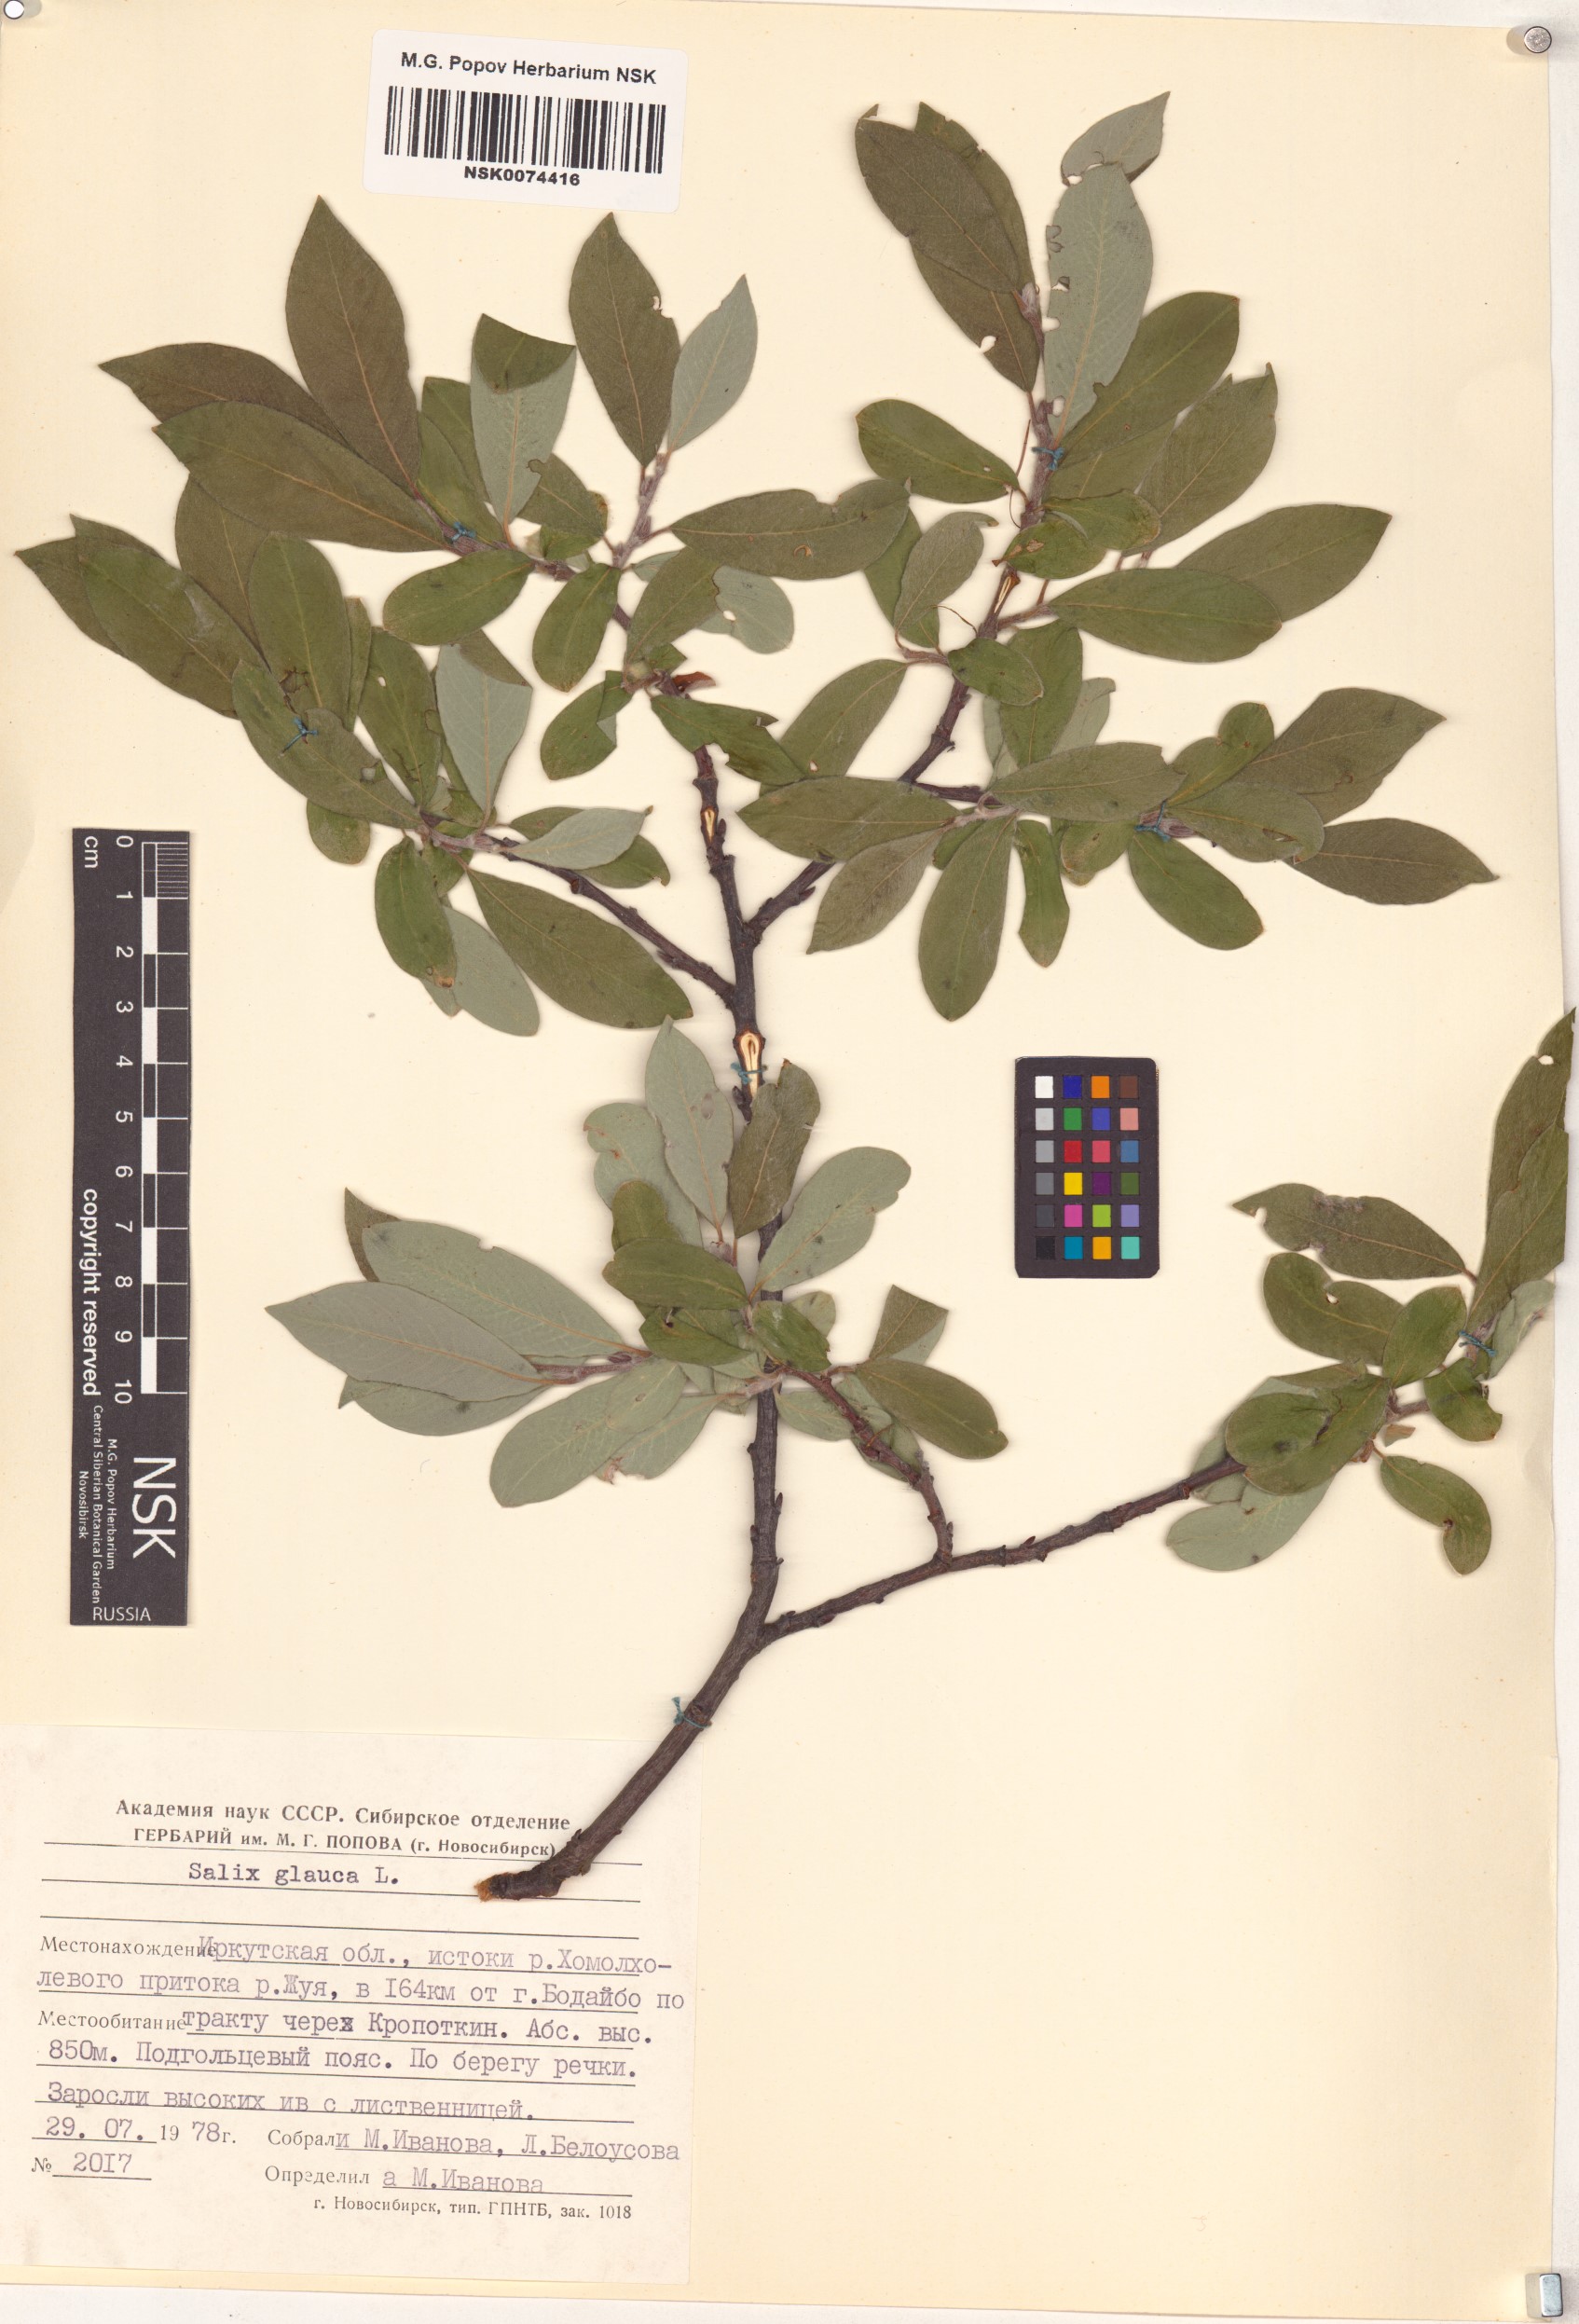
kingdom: Plantae
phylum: Tracheophyta
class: Magnoliopsida
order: Malpighiales
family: Salicaceae
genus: Salix
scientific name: Salix glauca
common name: Glaucous willow
